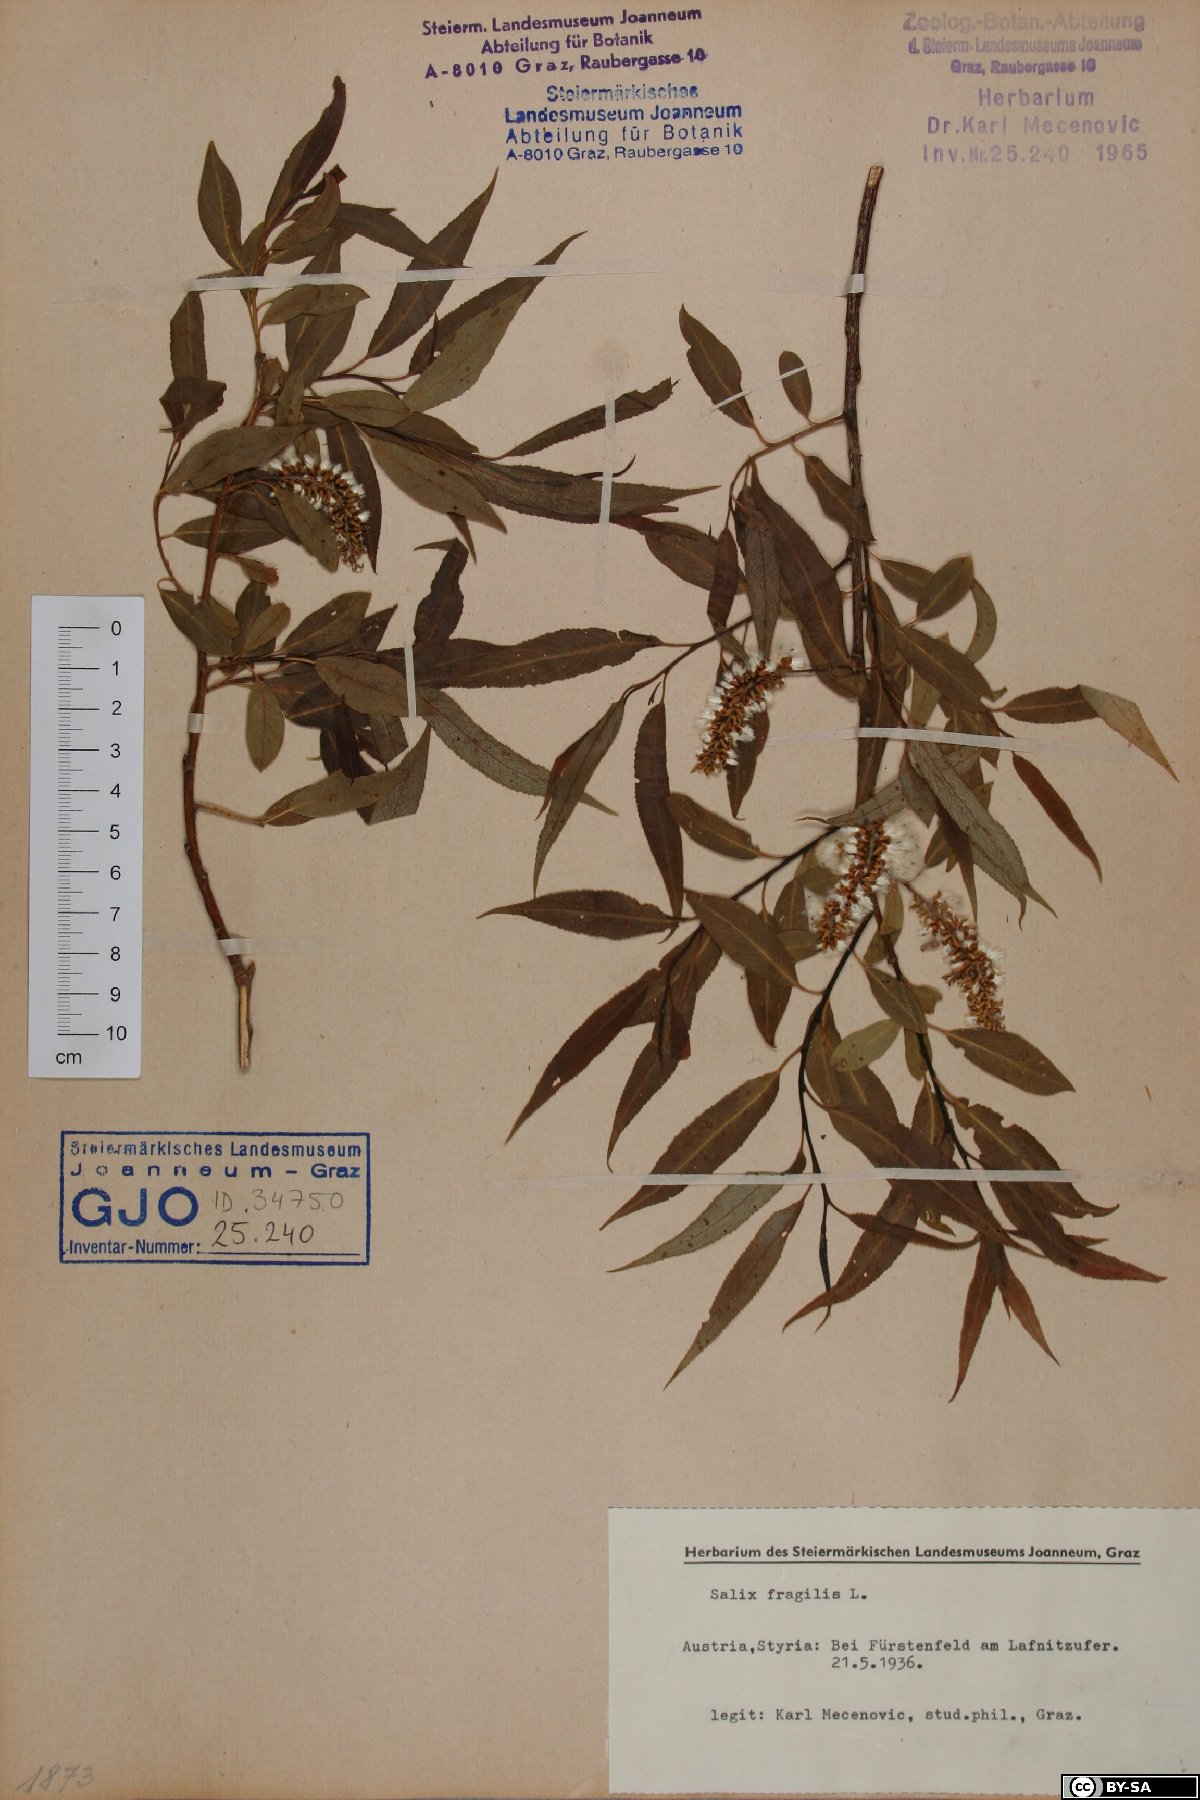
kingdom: Plantae
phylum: Tracheophyta
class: Magnoliopsida
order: Malpighiales
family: Salicaceae
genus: Salix
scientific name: Salix fragilis
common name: Crack willow
